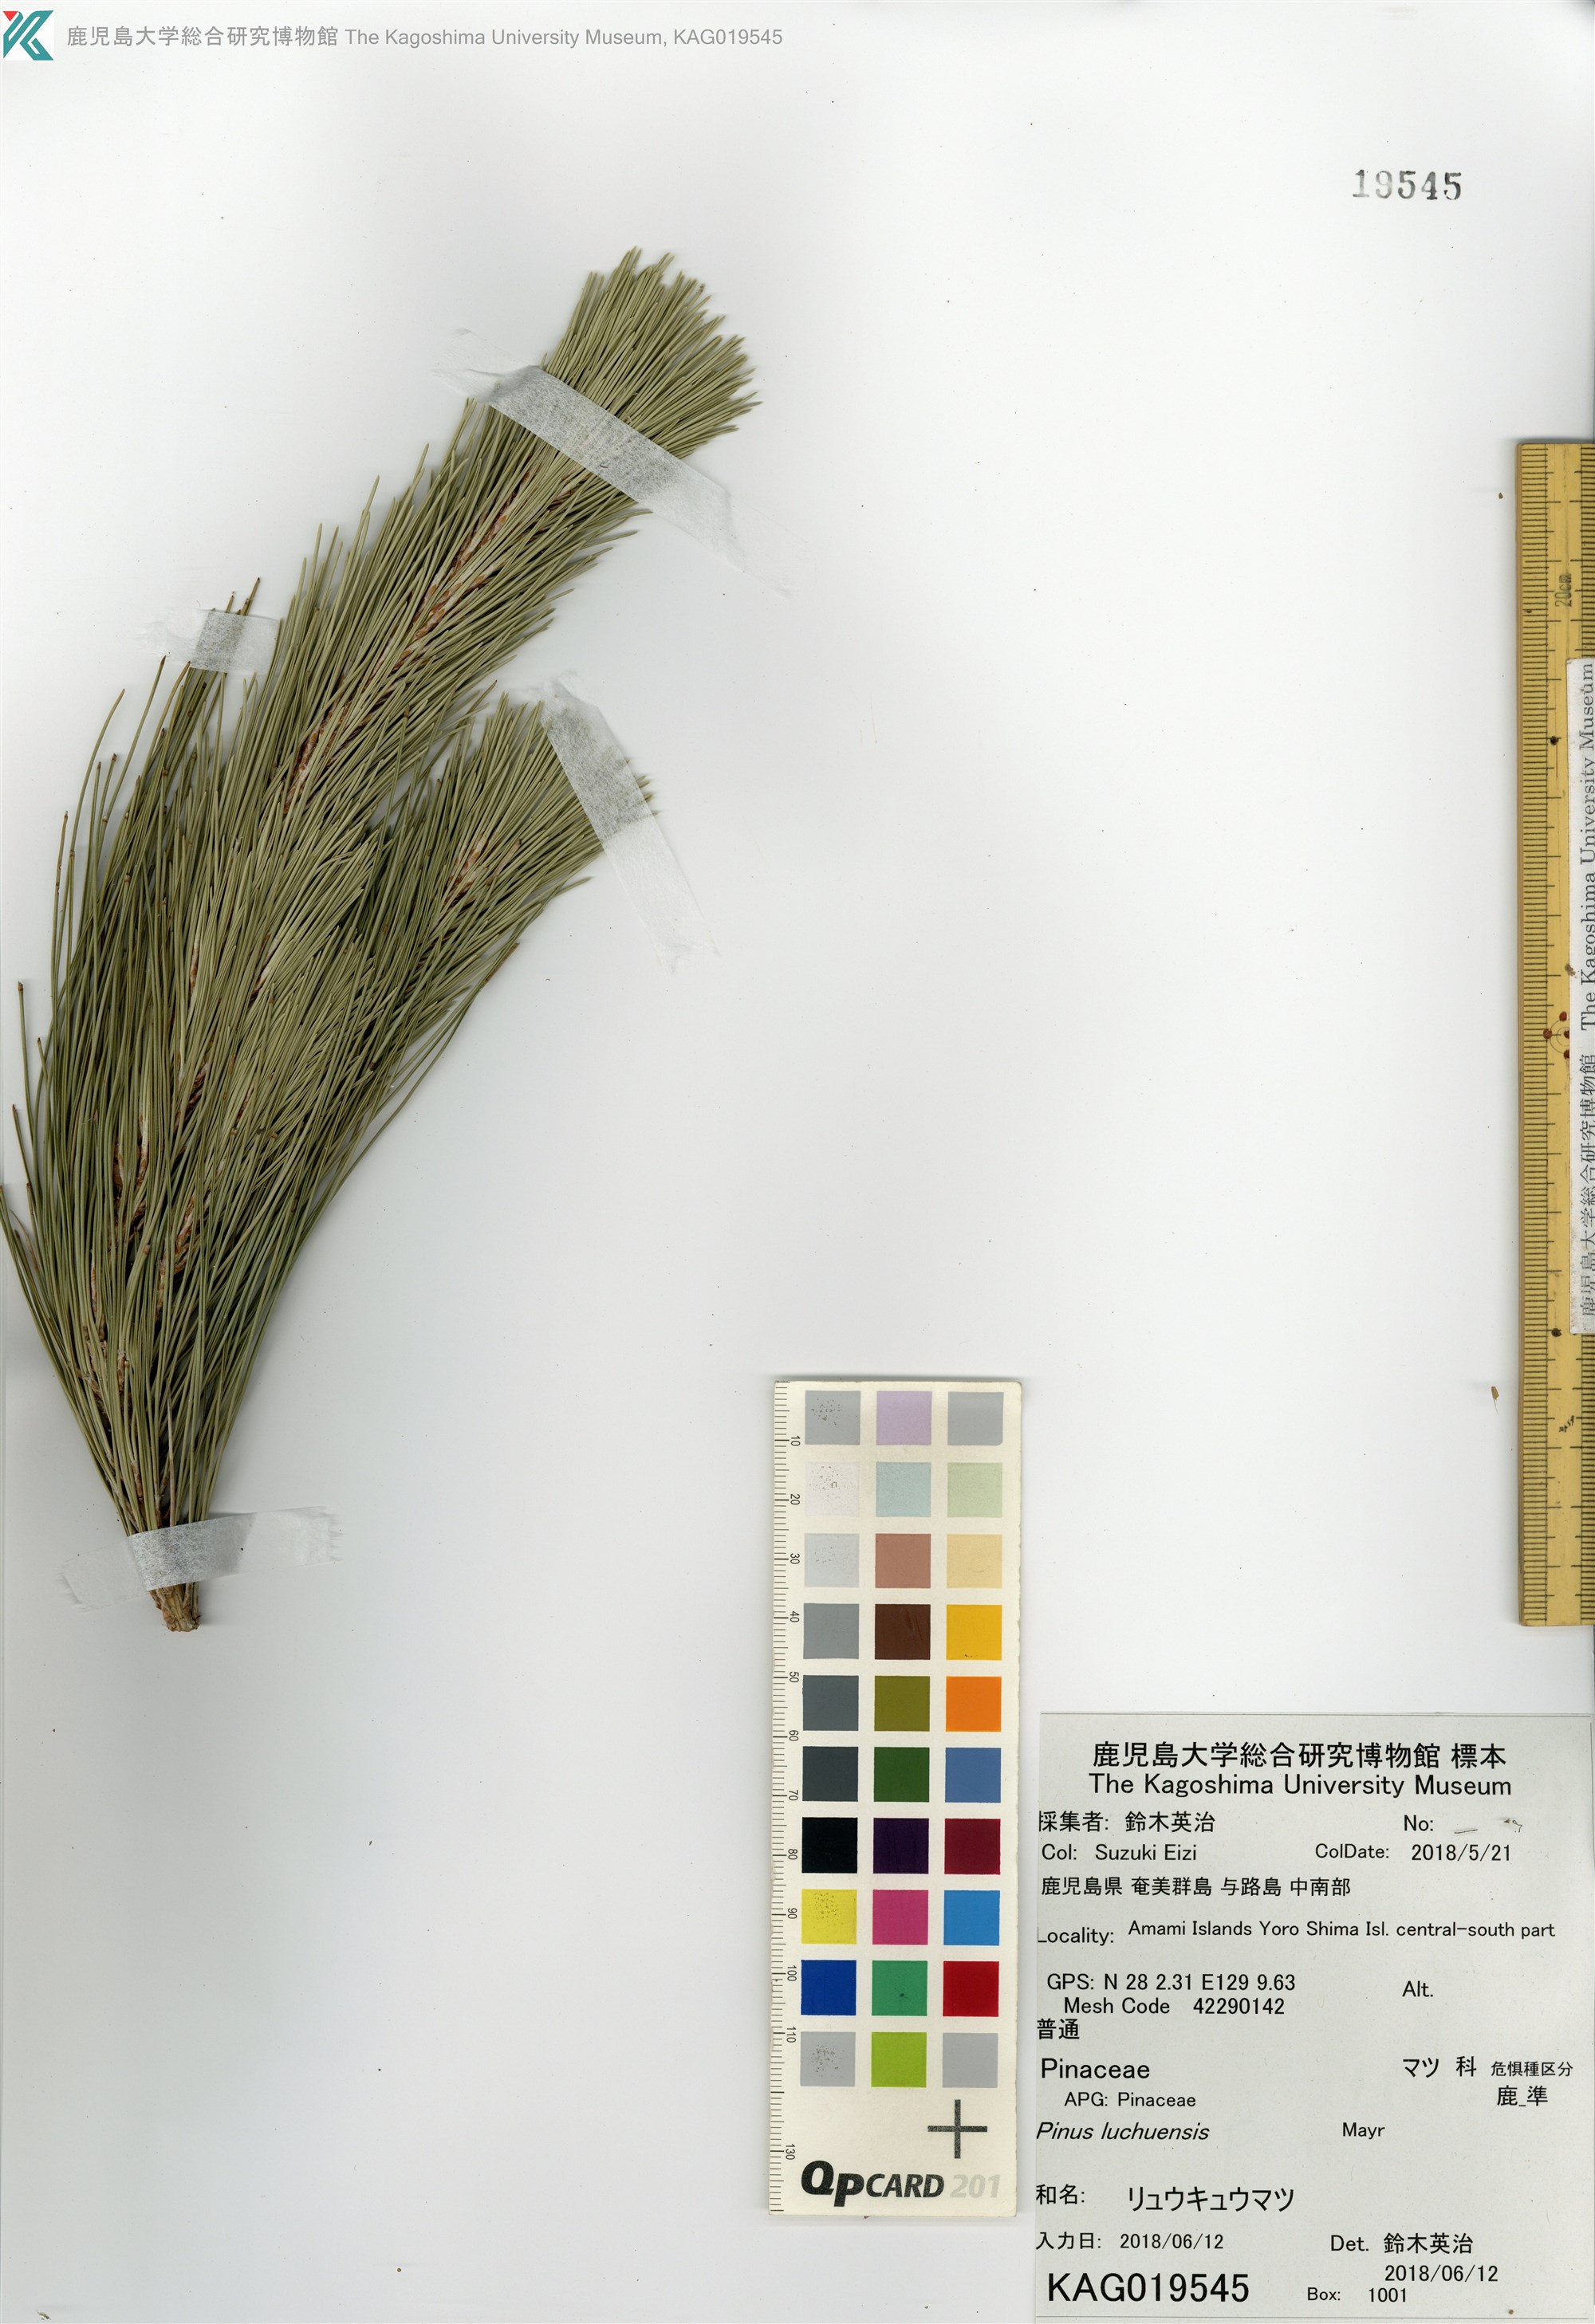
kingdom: Plantae
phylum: Tracheophyta
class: Pinopsida
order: Pinales
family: Pinaceae
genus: Pinus
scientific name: Pinus luchuensis
